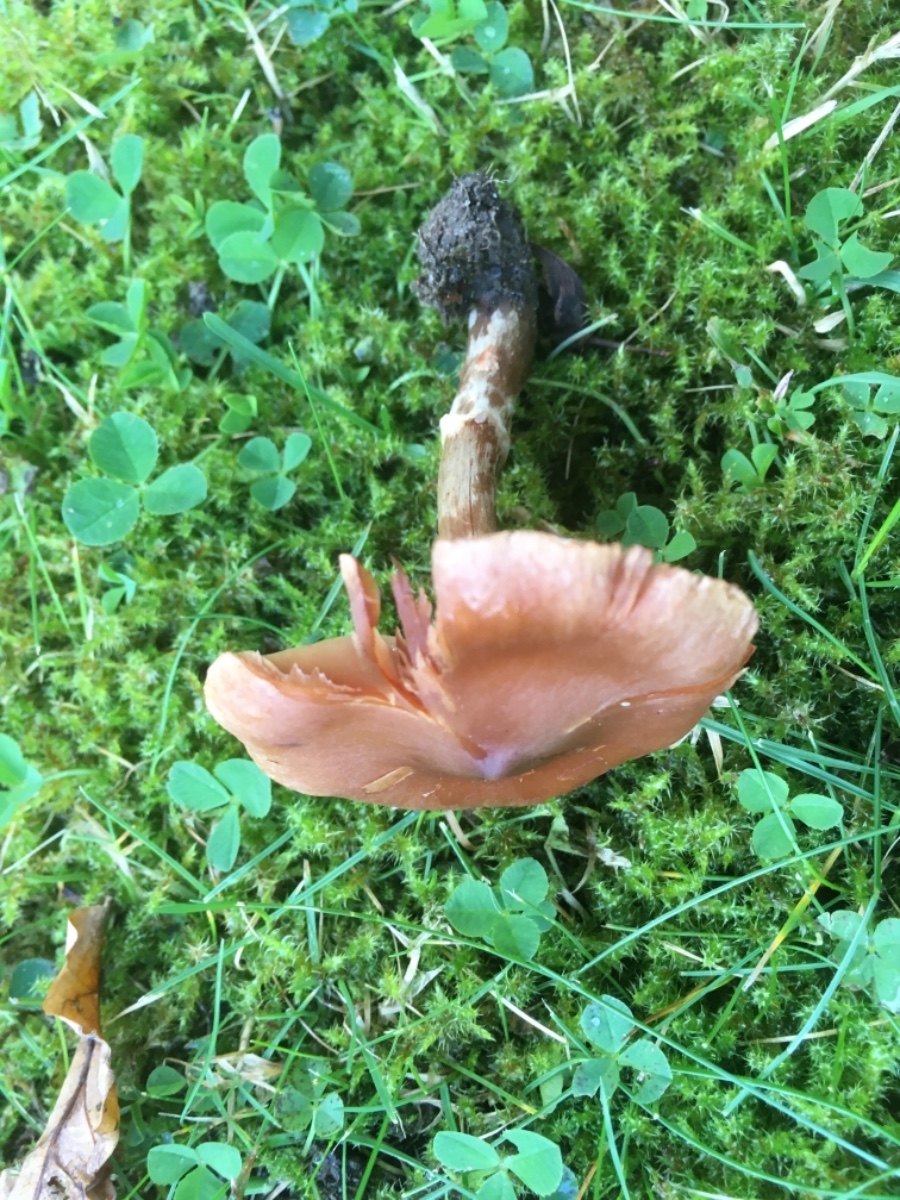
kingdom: Fungi
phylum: Basidiomycota
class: Agaricomycetes
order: Agaricales
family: Cortinariaceae
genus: Cortinarius
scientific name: Cortinarius
